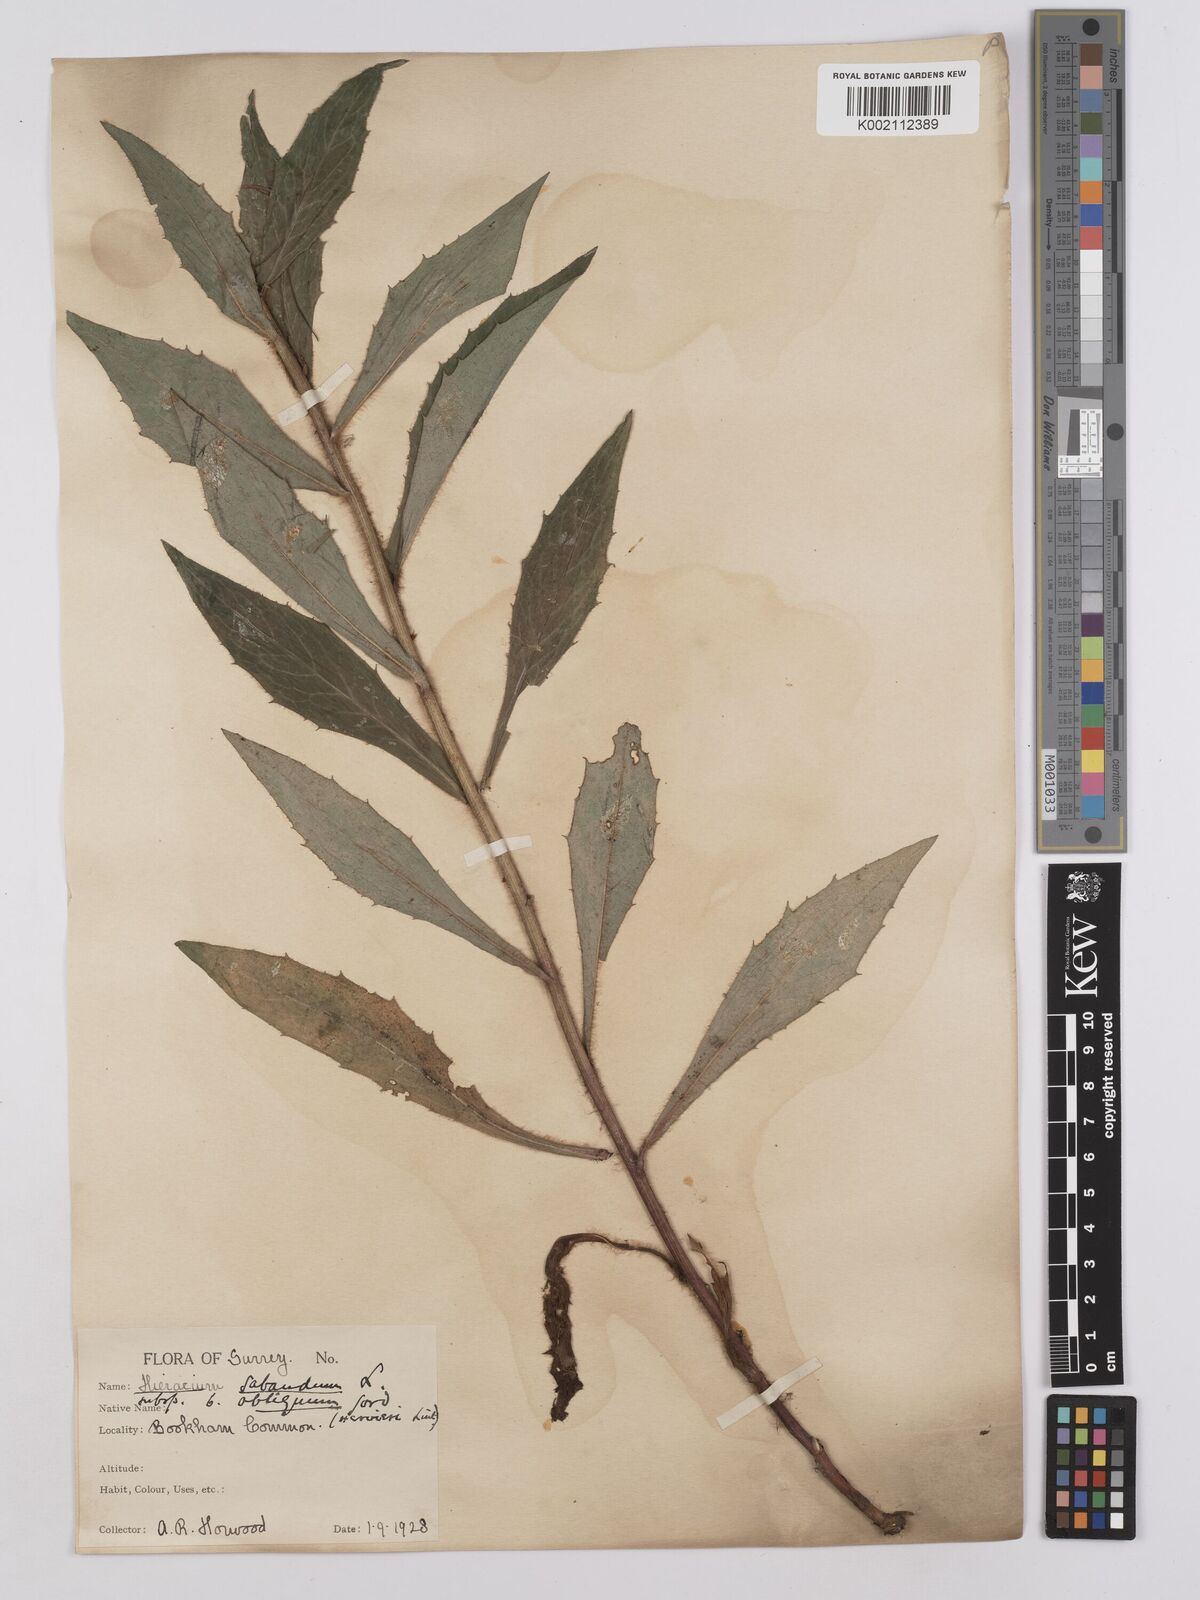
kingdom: Plantae
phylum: Tracheophyta
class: Magnoliopsida
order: Asterales
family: Asteraceae
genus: Hieracium
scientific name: Hieracium sabaudum
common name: New england hawkweed
